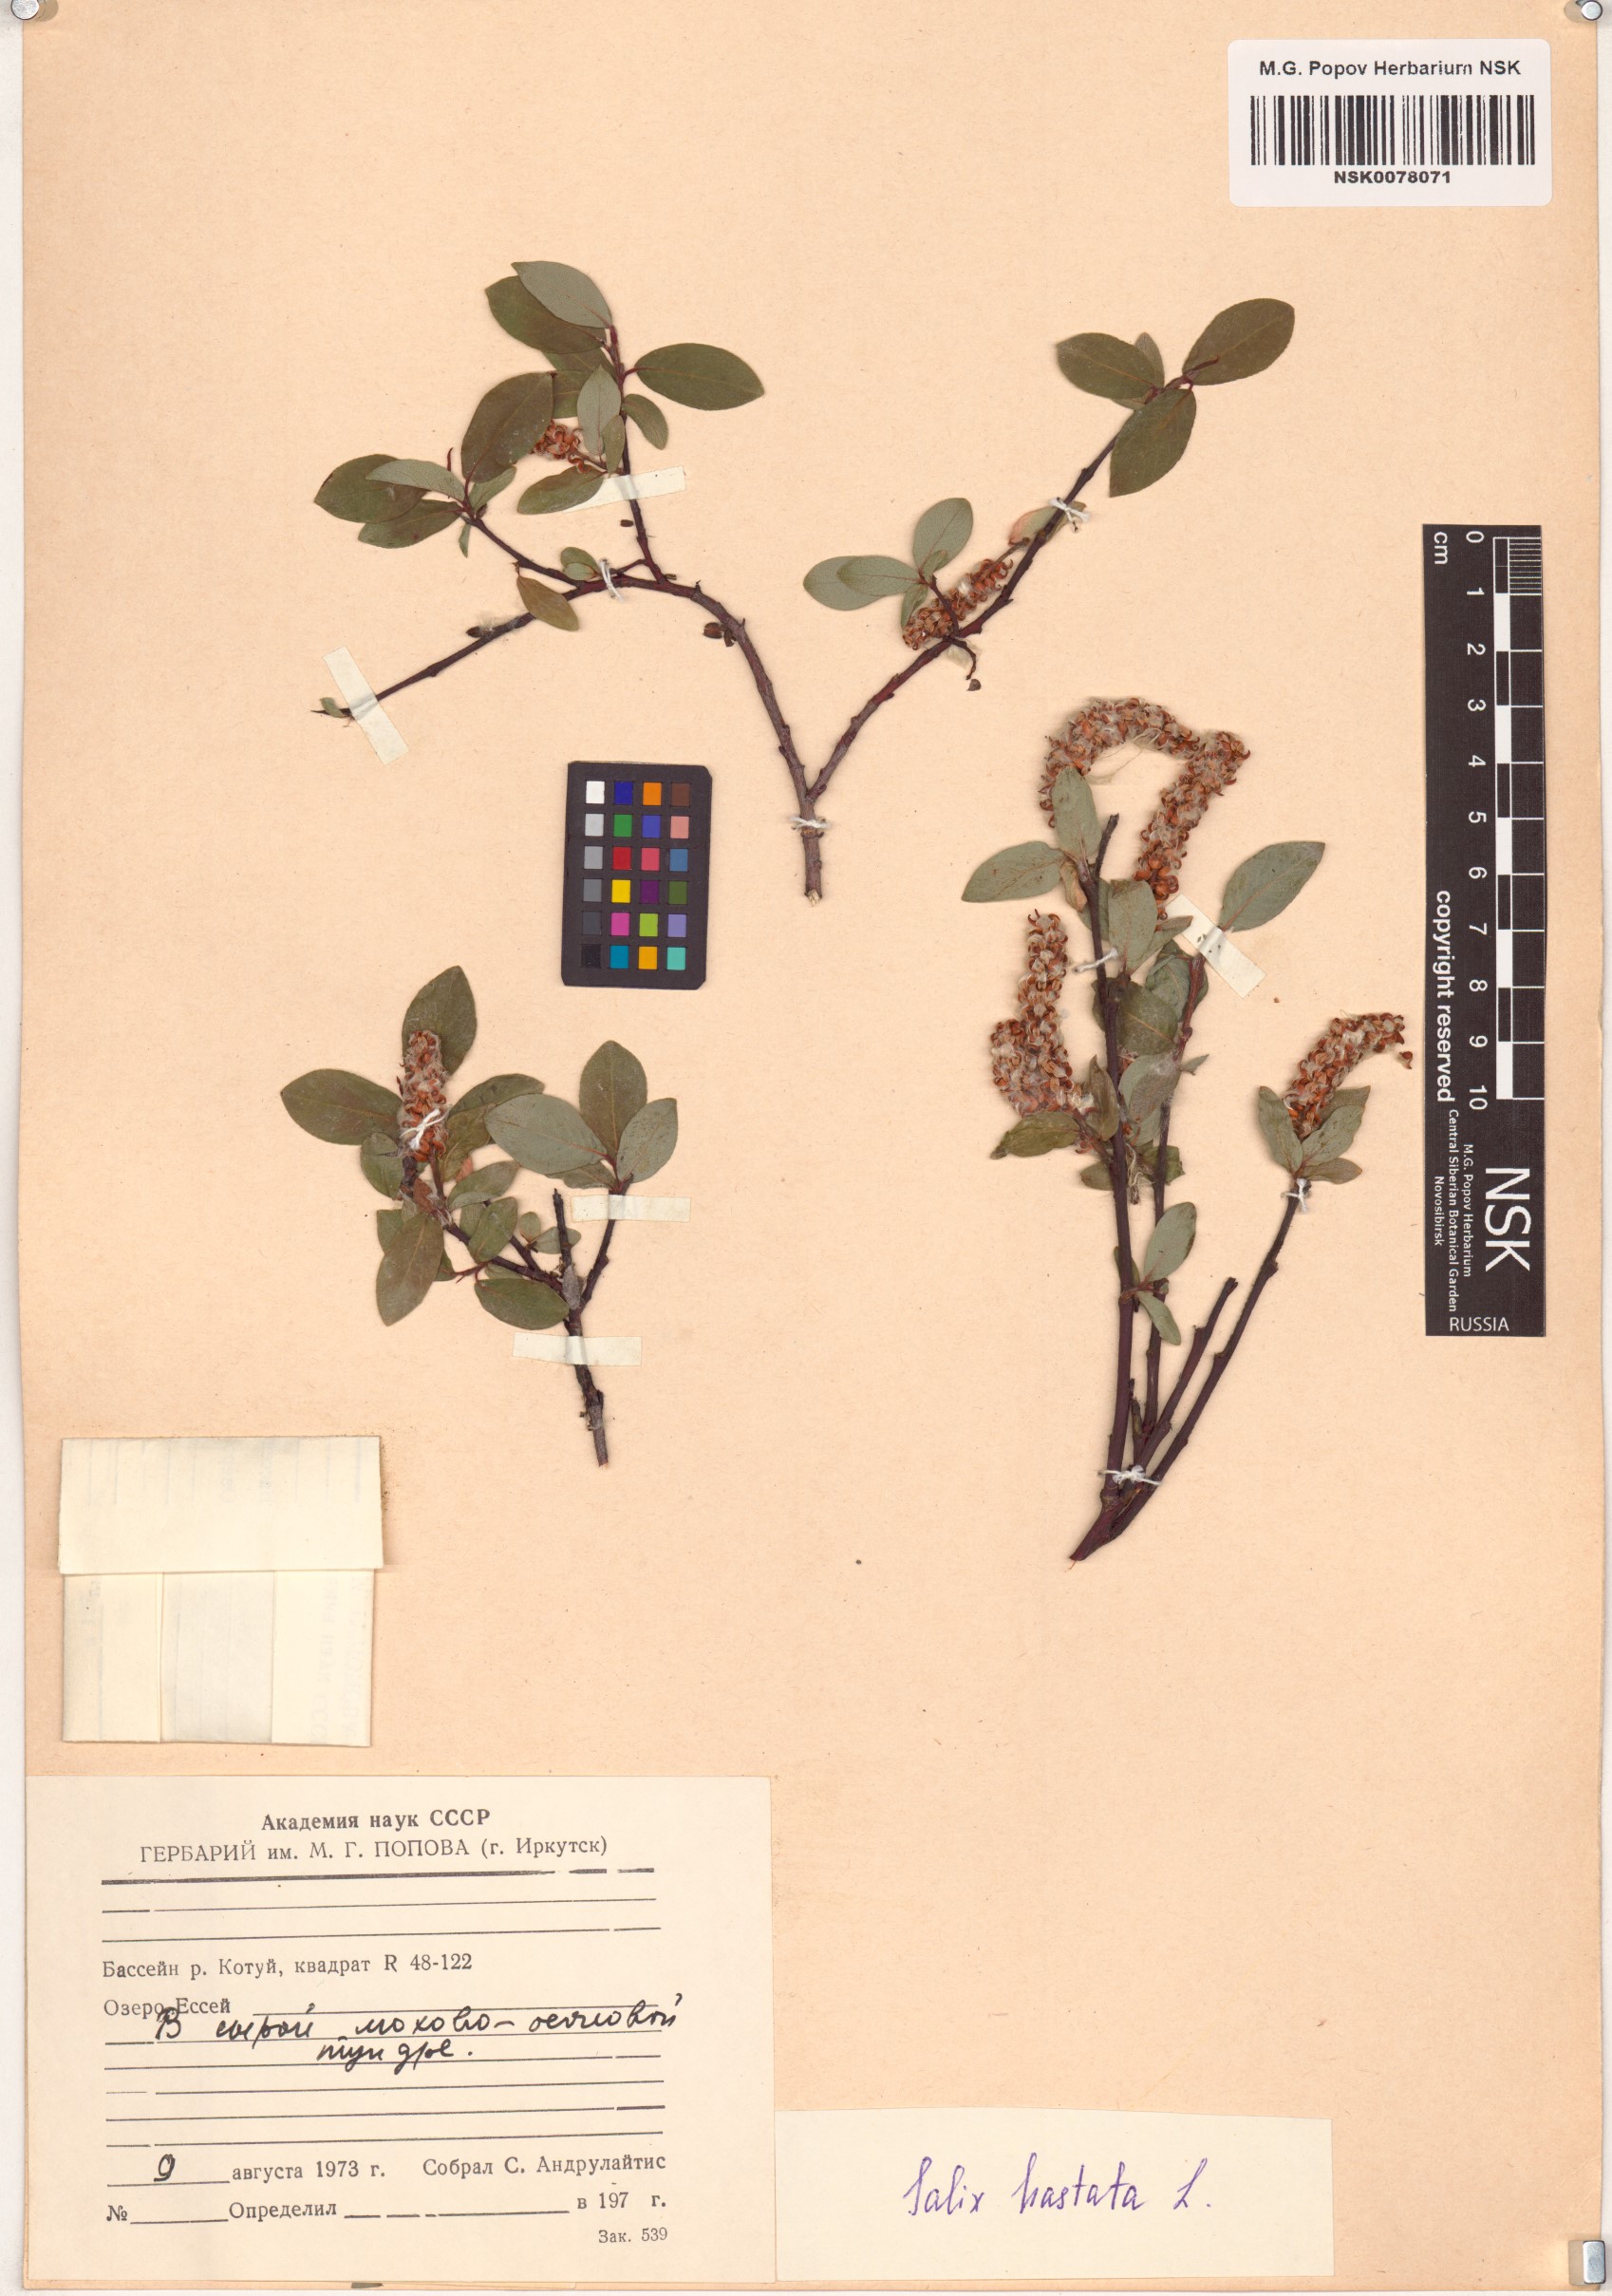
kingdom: Plantae
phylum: Tracheophyta
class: Magnoliopsida
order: Malpighiales
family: Salicaceae
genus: Salix
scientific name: Salix hastata
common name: Halberd willow
